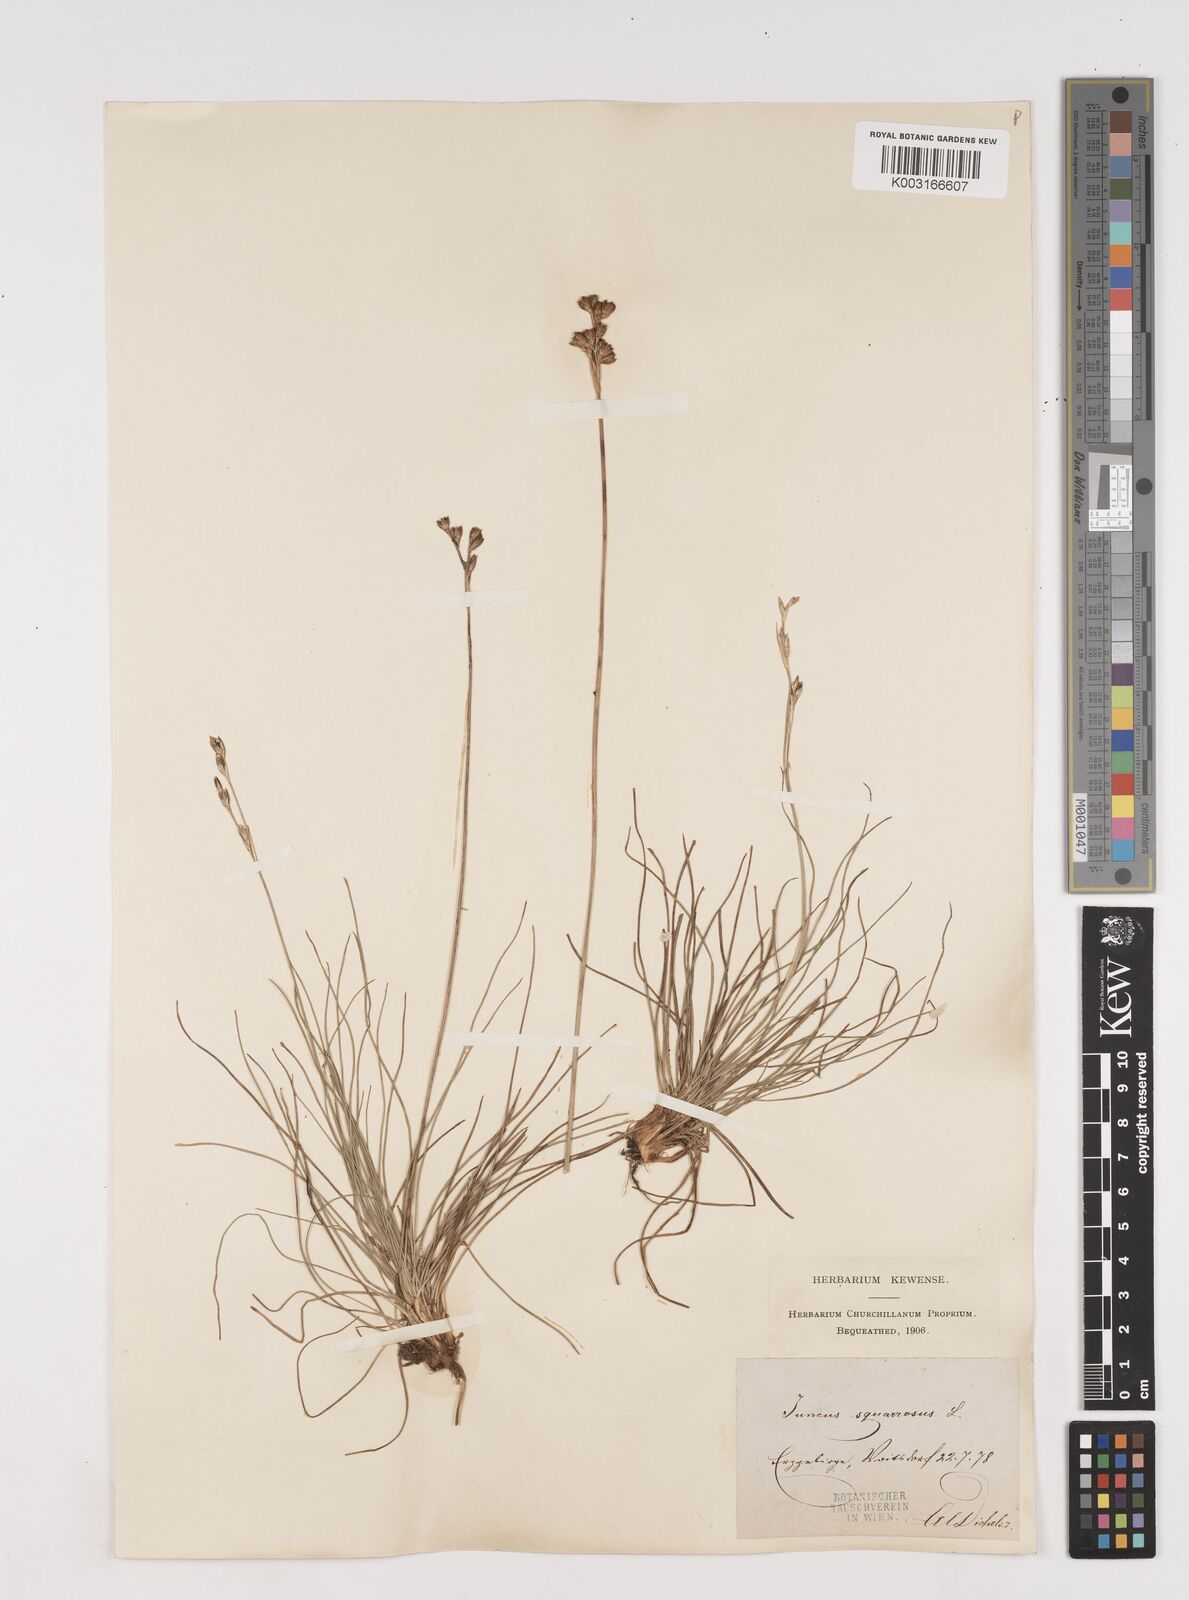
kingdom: Plantae
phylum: Tracheophyta
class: Liliopsida
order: Poales
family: Juncaceae
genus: Juncus
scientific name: Juncus squarrosus
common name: Heath rush
